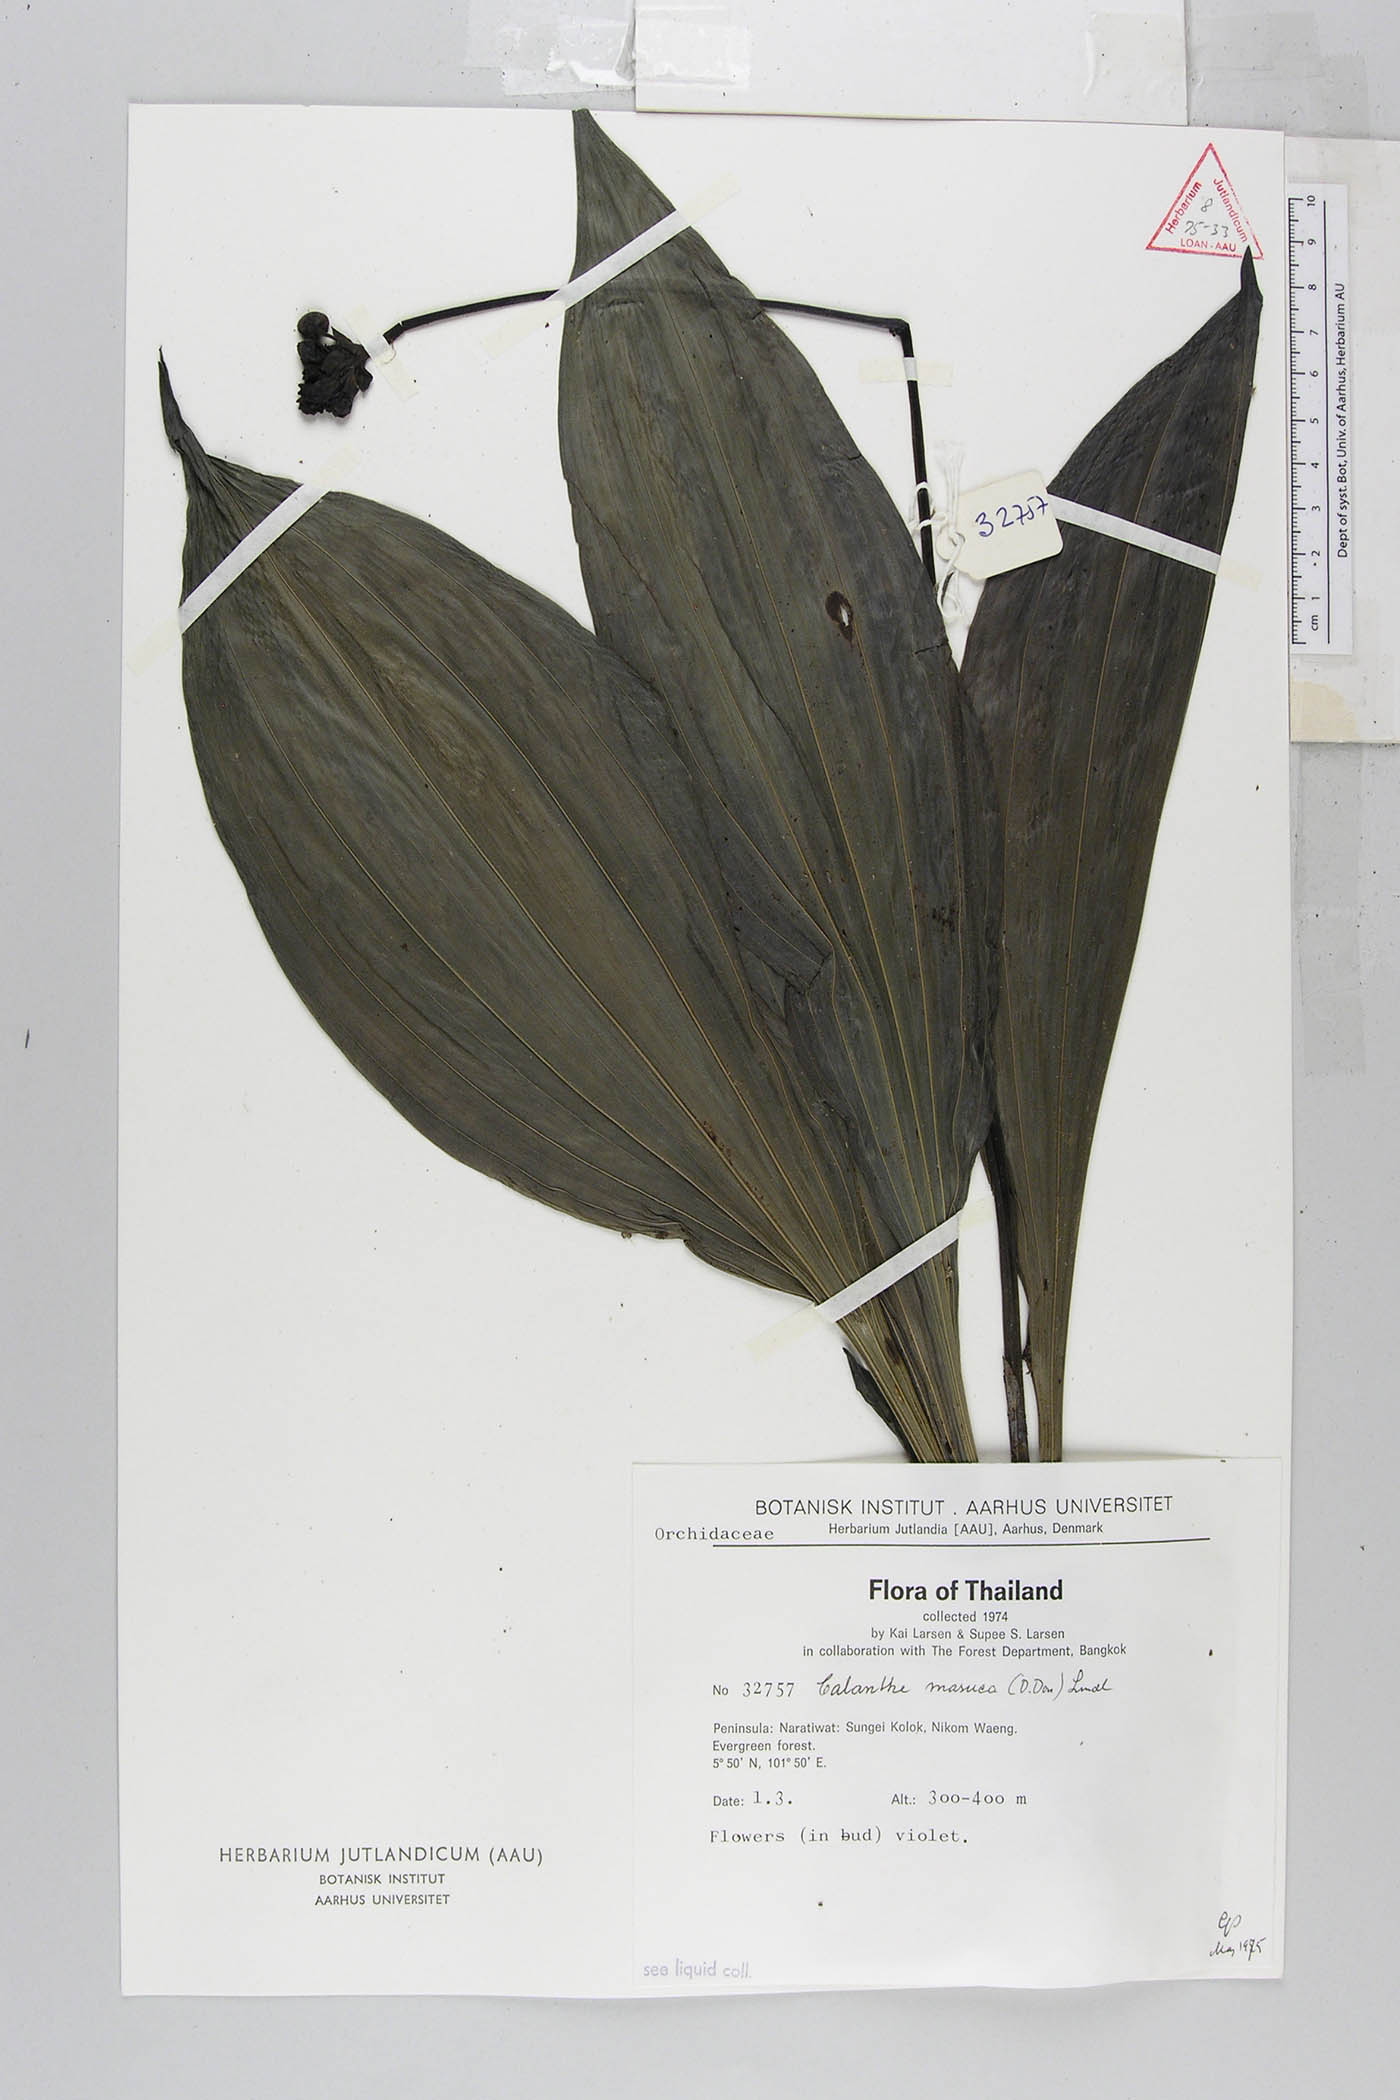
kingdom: Plantae
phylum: Tracheophyta
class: Liliopsida
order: Asparagales
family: Orchidaceae
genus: Calanthe
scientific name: Calanthe masuca
